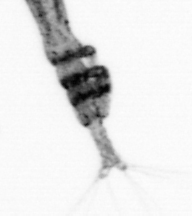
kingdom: Animalia
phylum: Arthropoda
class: Copepoda
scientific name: Copepoda
